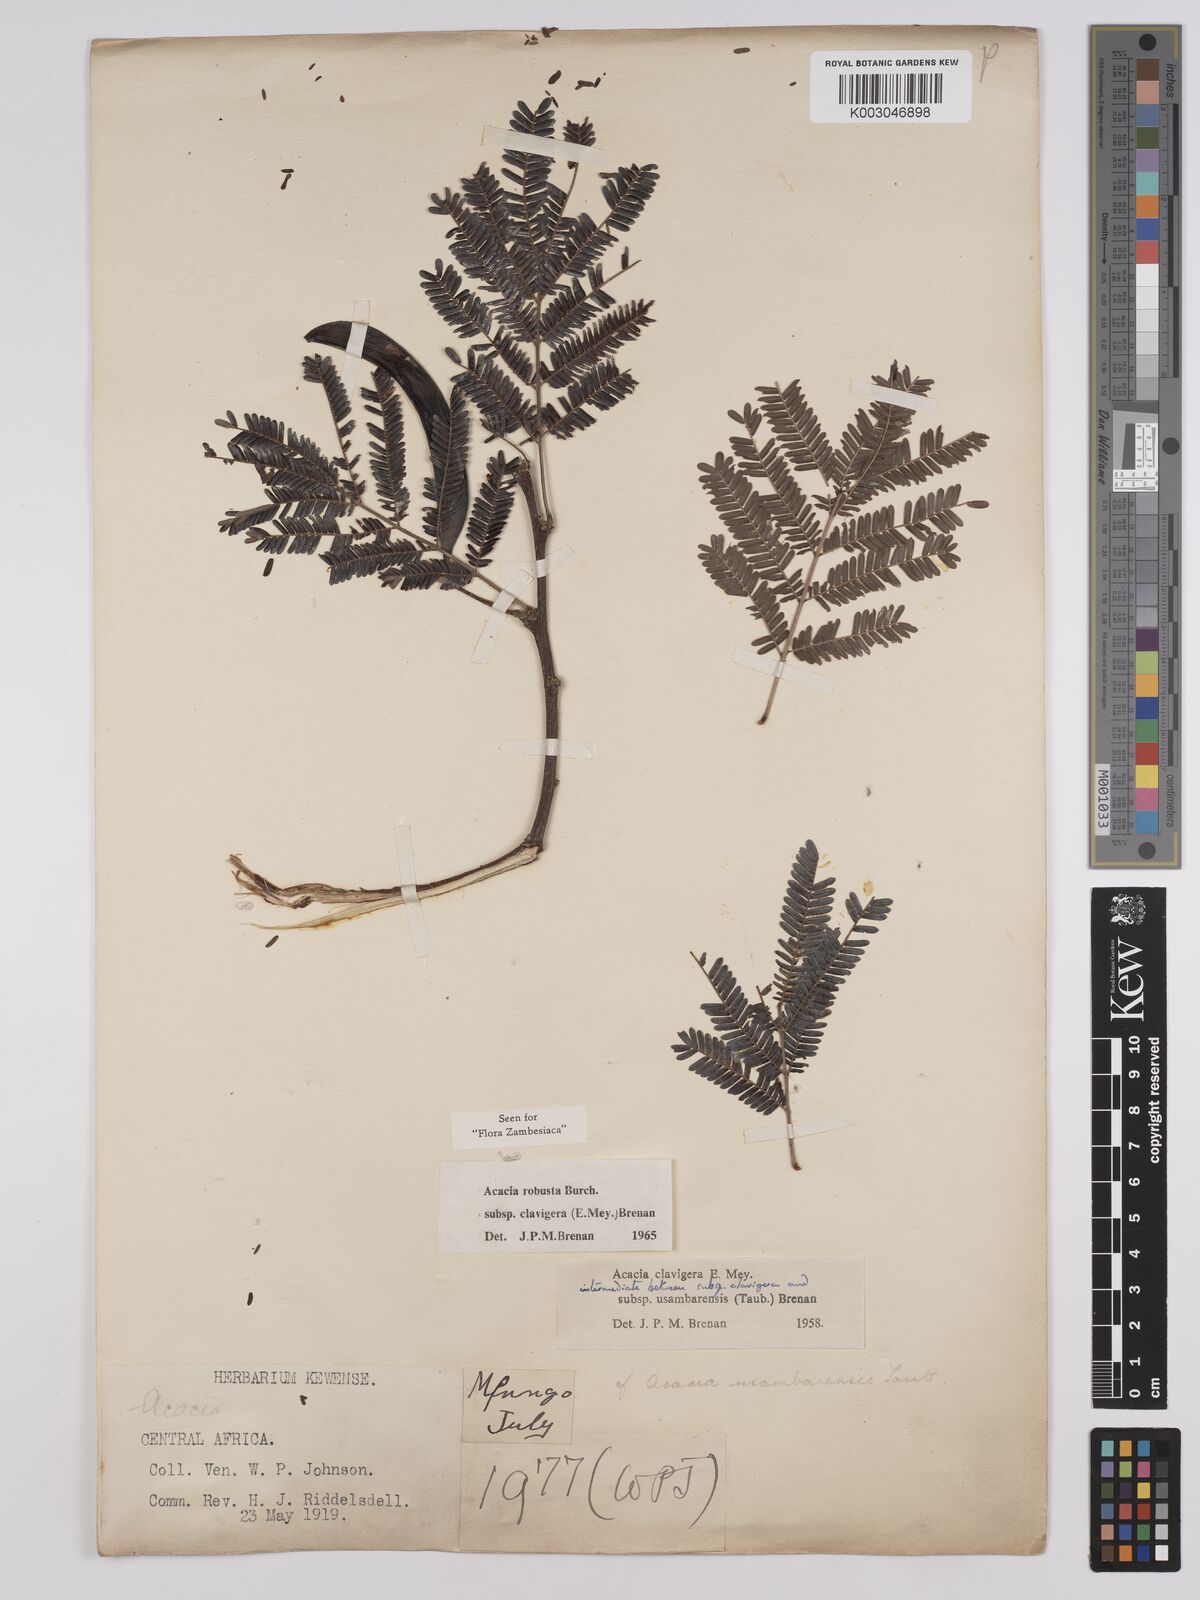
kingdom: Plantae
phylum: Tracheophyta
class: Magnoliopsida
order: Fabales
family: Fabaceae
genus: Vachellia
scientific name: Vachellia robusta
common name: Ankle thorn
